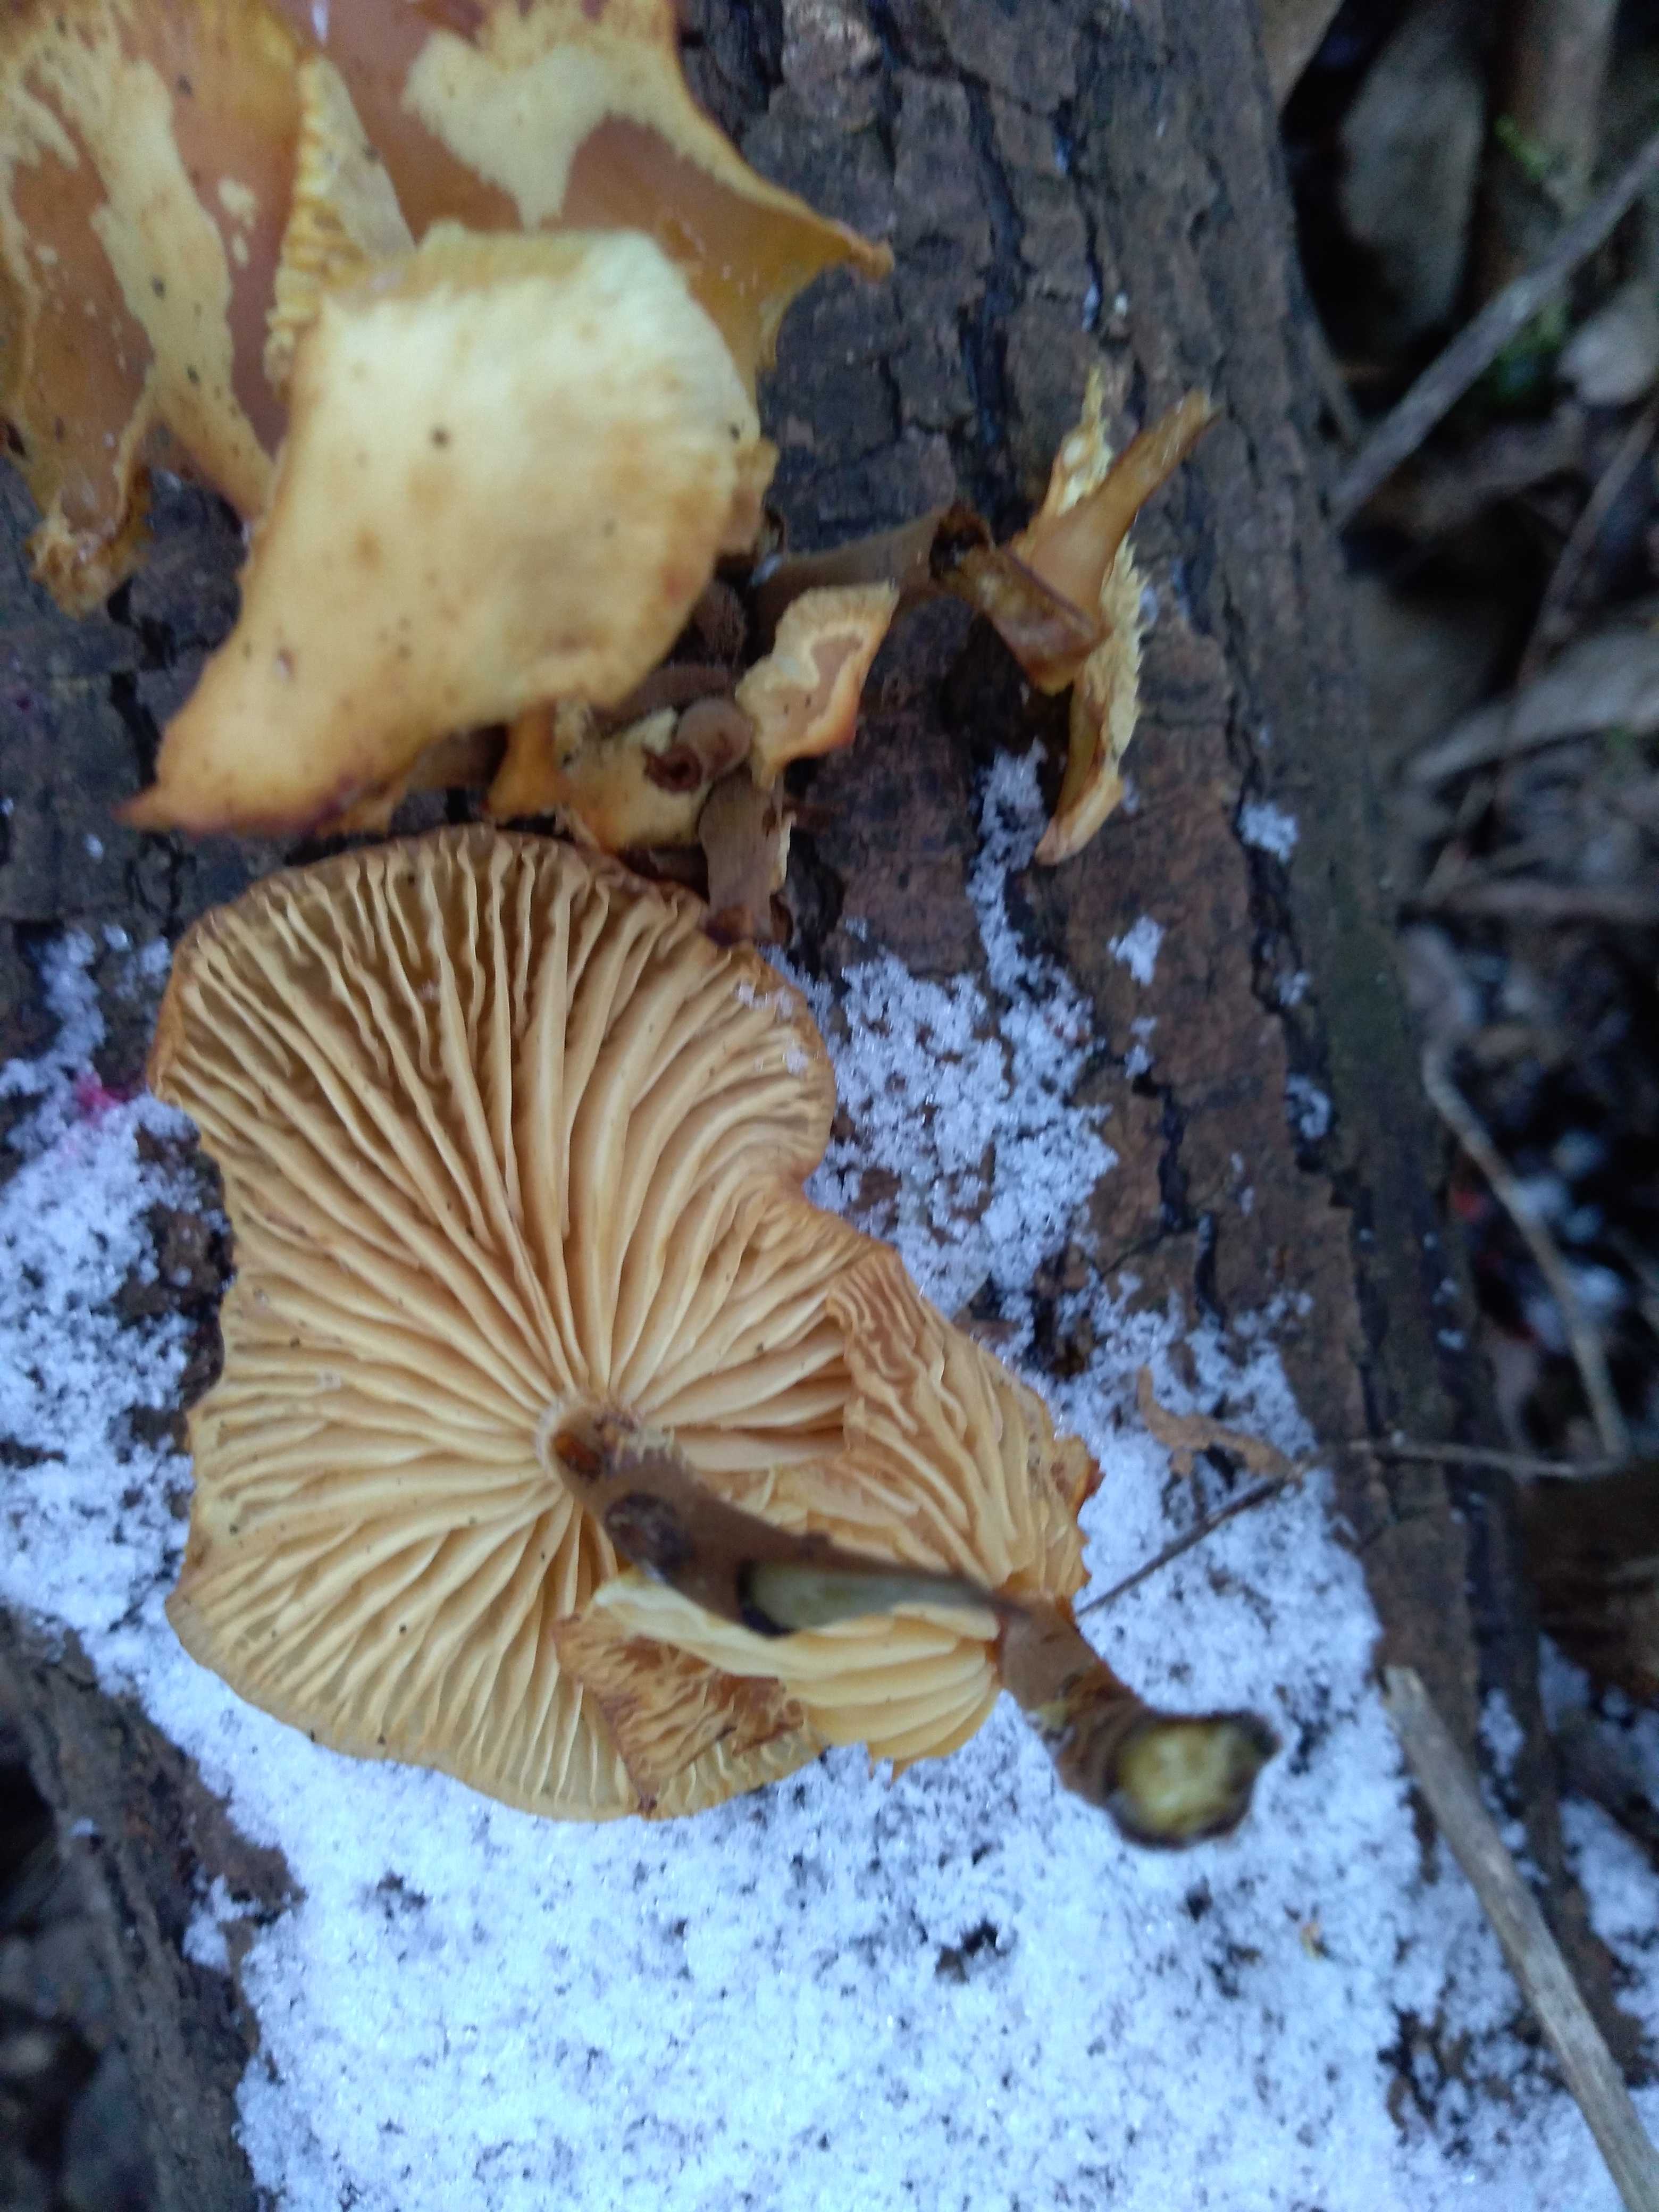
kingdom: Fungi
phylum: Basidiomycota
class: Agaricomycetes
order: Agaricales
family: Physalacriaceae
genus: Flammulina
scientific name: Flammulina
